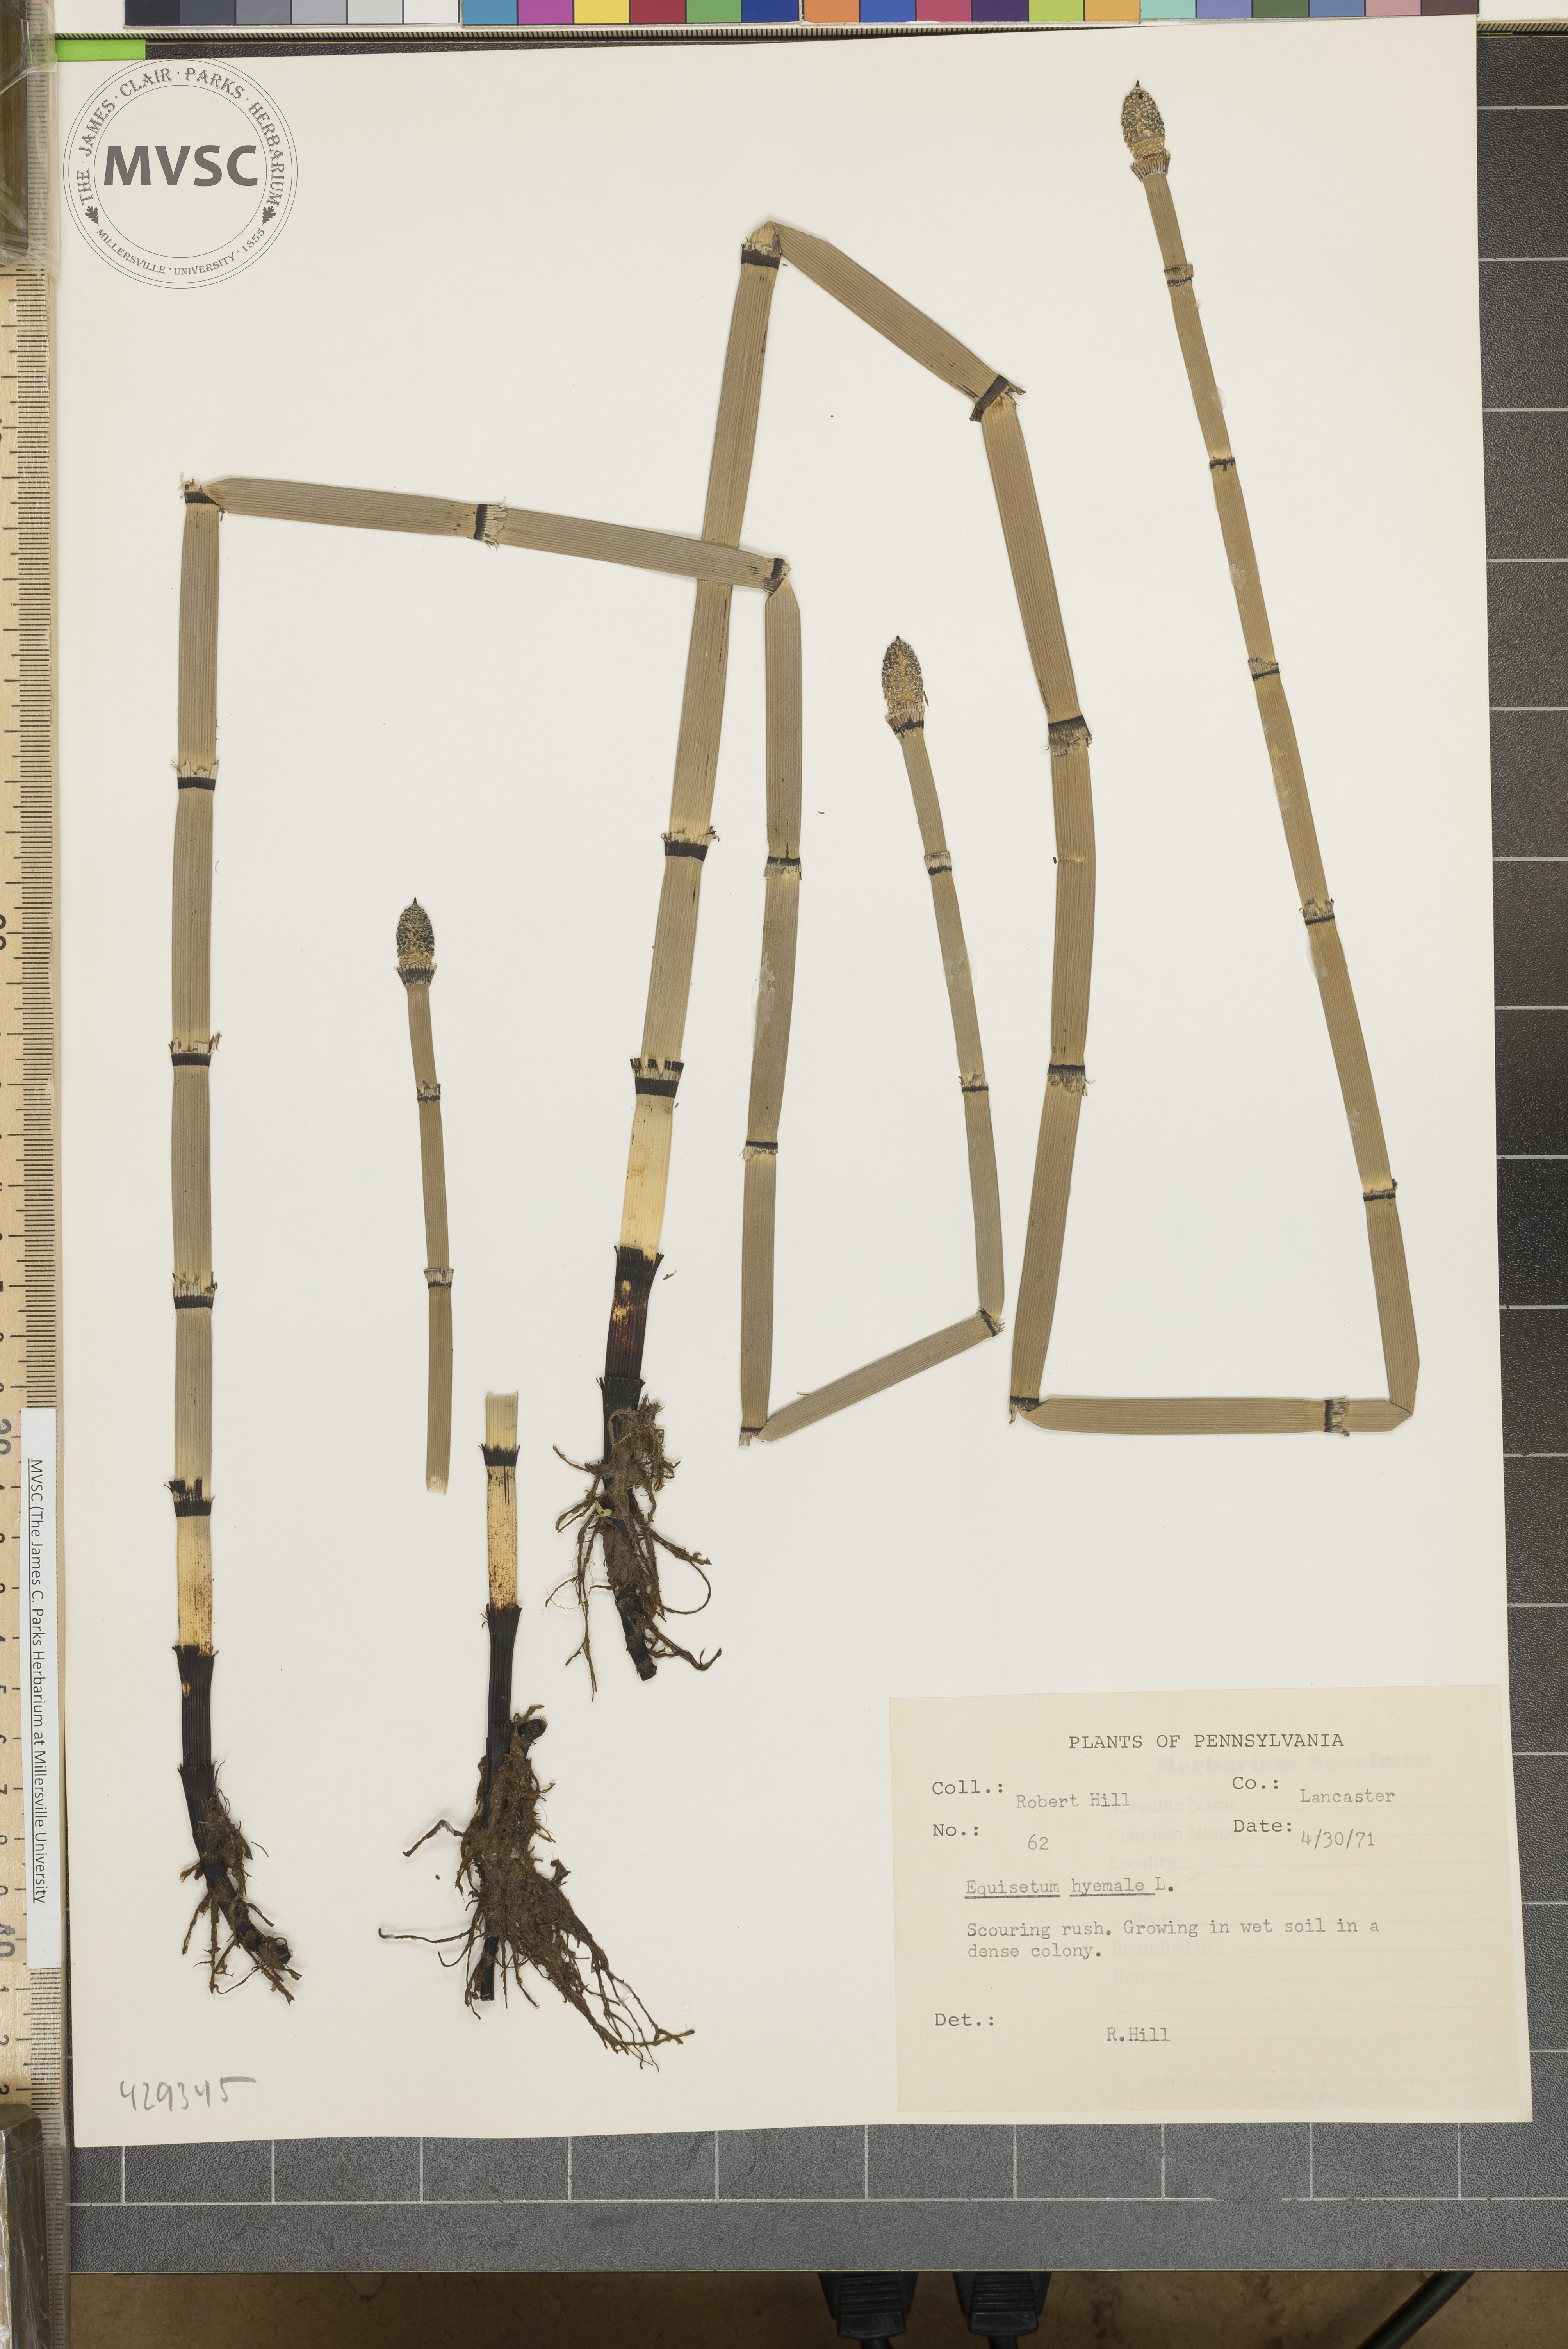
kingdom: Plantae
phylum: Tracheophyta
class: Polypodiopsida
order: Equisetales
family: Equisetaceae
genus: Equisetum
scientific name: Equisetum hyemale
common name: Rough horsetail
